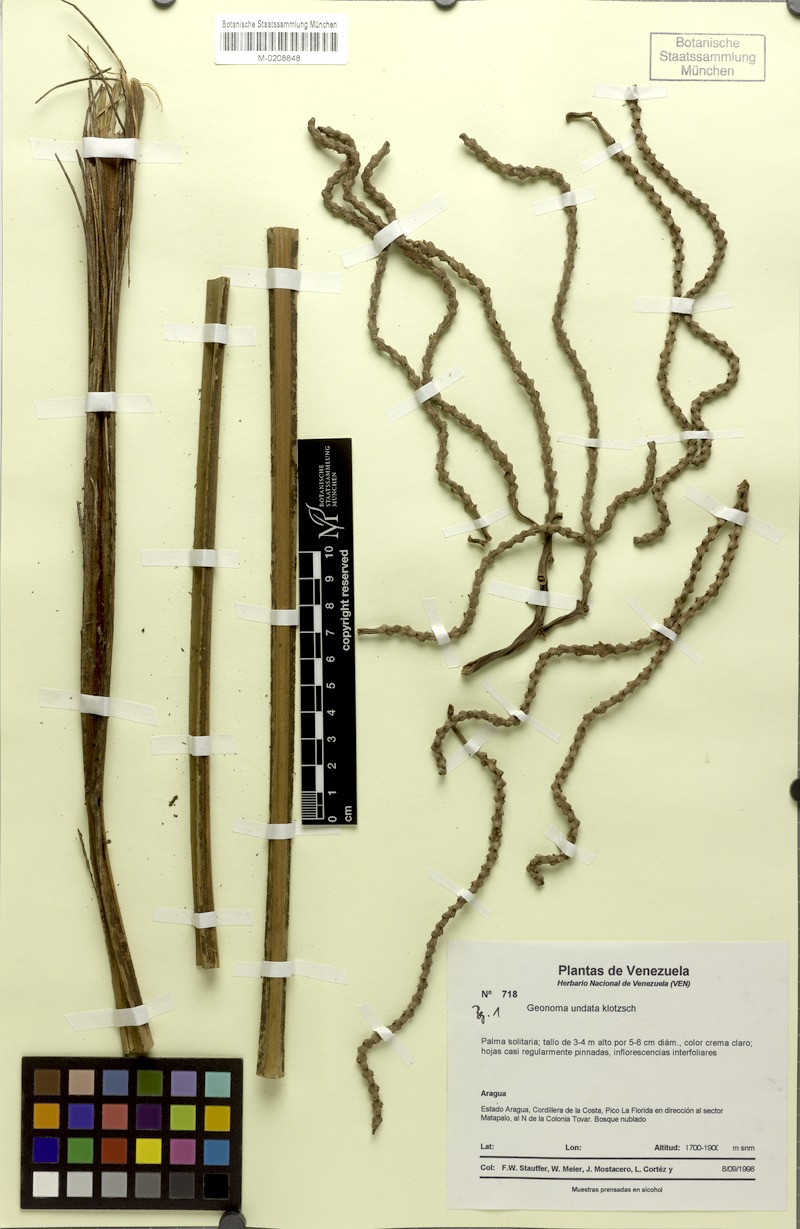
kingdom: Plantae
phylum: Tracheophyta
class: Liliopsida
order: Arecales
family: Arecaceae
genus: Geonoma
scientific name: Geonoma undata
